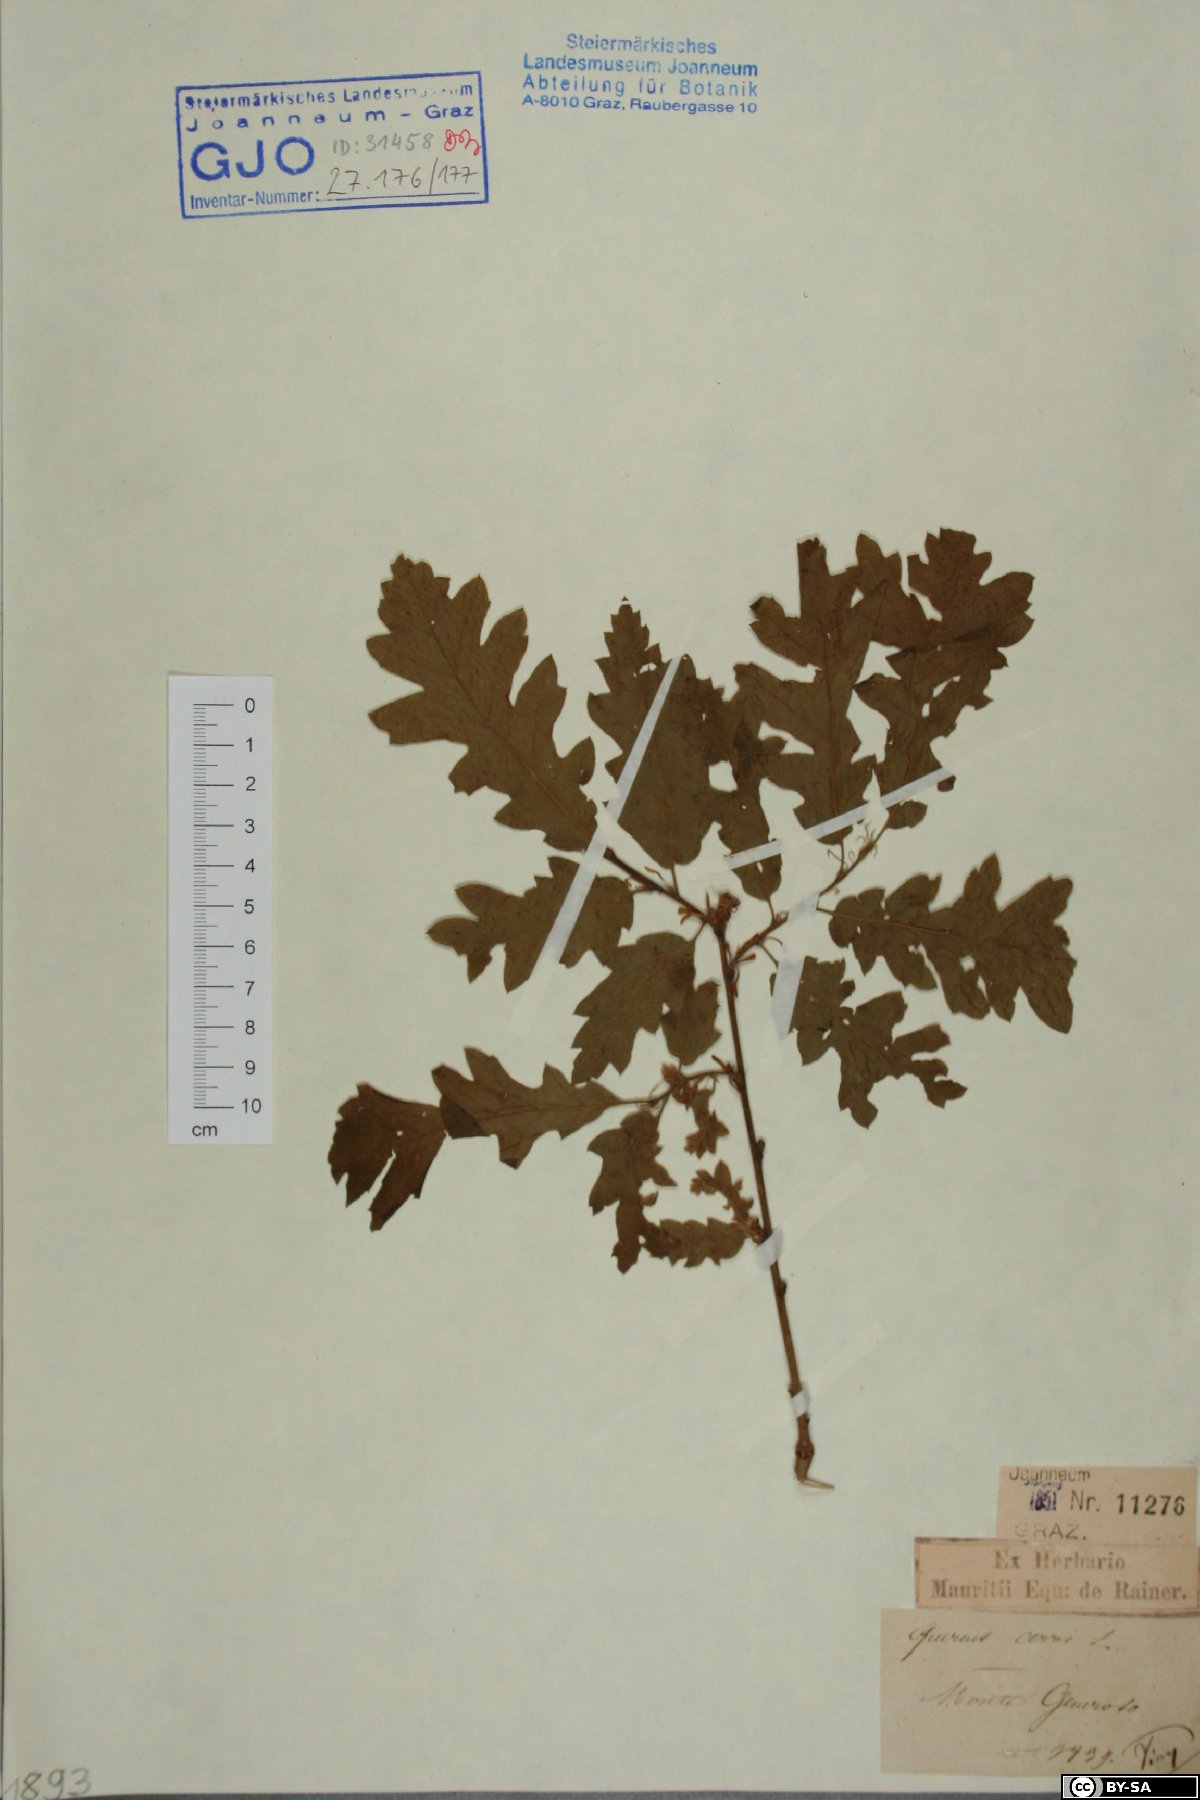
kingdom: Plantae
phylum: Tracheophyta
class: Magnoliopsida
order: Fagales
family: Fagaceae
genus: Quercus
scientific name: Quercus cerris
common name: Turkey oak
